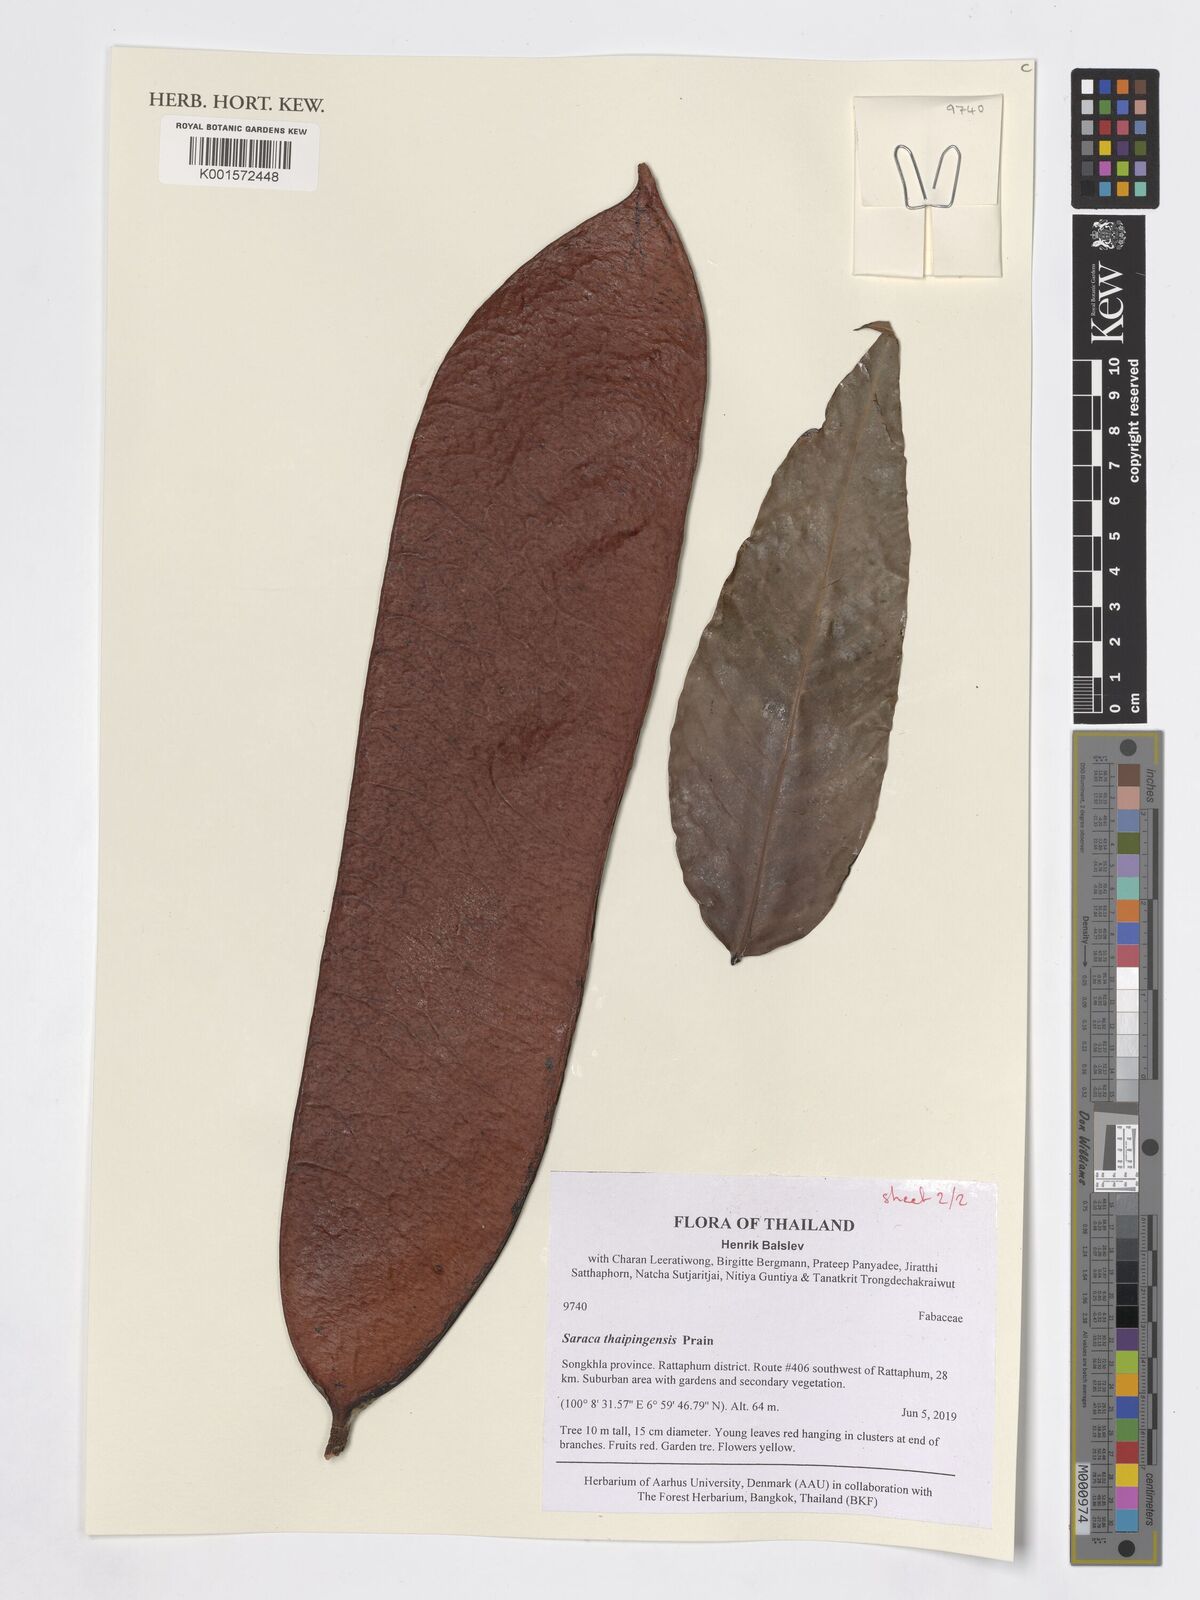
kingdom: Plantae
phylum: Tracheophyta
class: Magnoliopsida
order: Fabales
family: Fabaceae
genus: Saraca
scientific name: Saraca thaipingensis
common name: Yellow saraca
